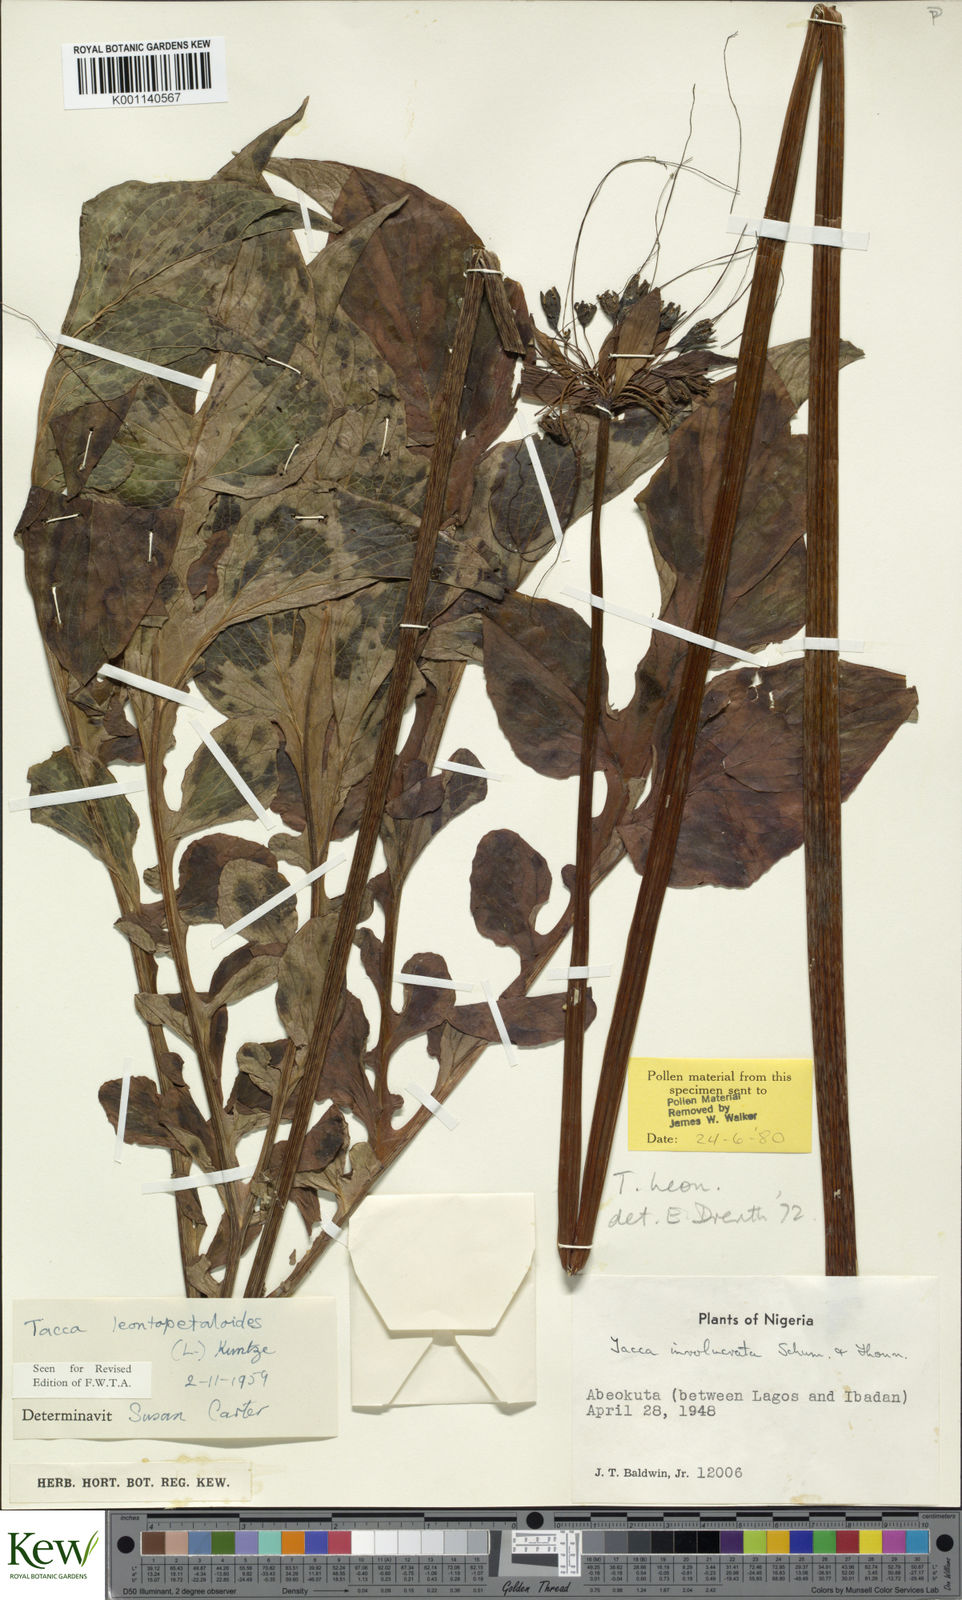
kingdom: Plantae
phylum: Tracheophyta
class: Liliopsida
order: Dioscoreales
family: Dioscoreaceae
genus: Tacca
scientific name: Tacca leontopetaloides
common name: Arrowroot
